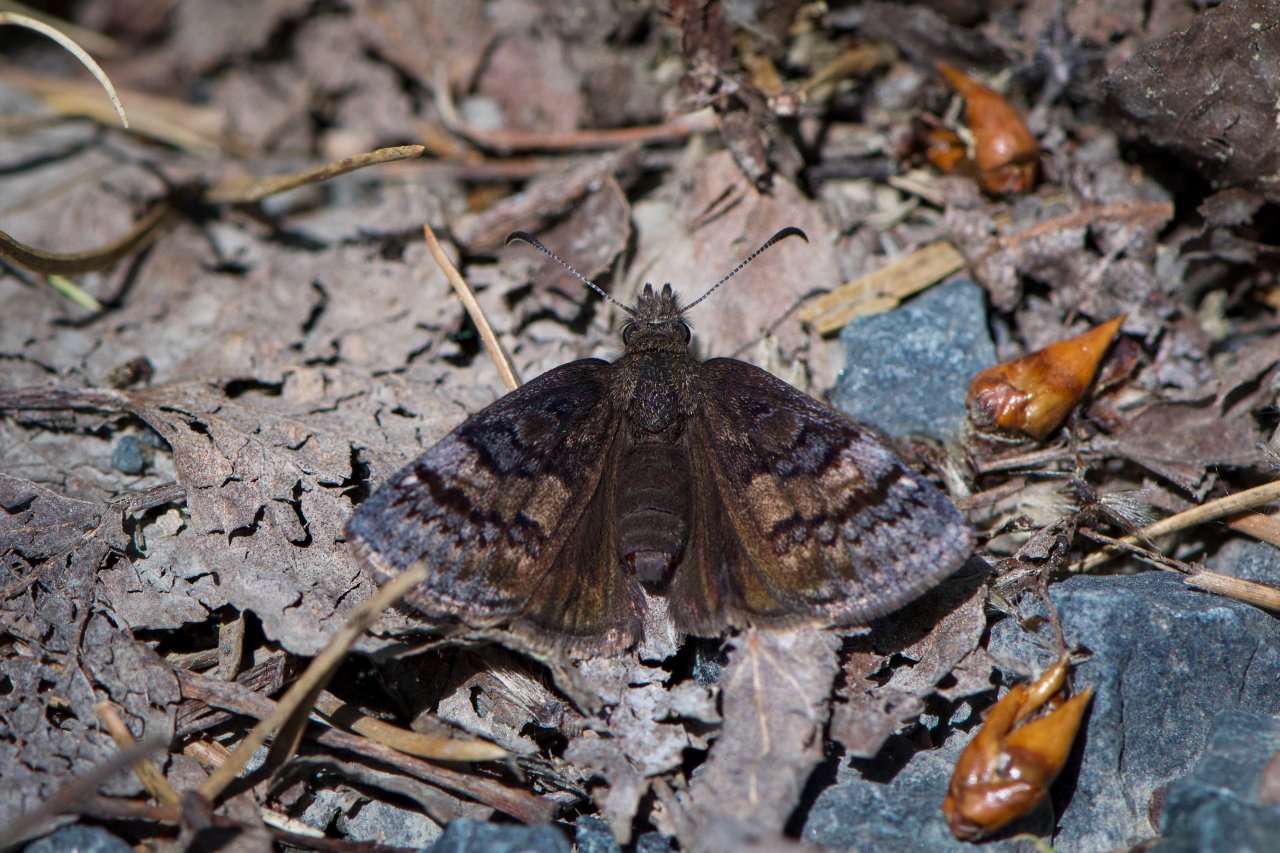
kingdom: Animalia
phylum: Arthropoda
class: Insecta
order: Lepidoptera
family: Hesperiidae
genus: Erynnis
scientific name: Erynnis icelus
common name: Dreamy Duskywing
